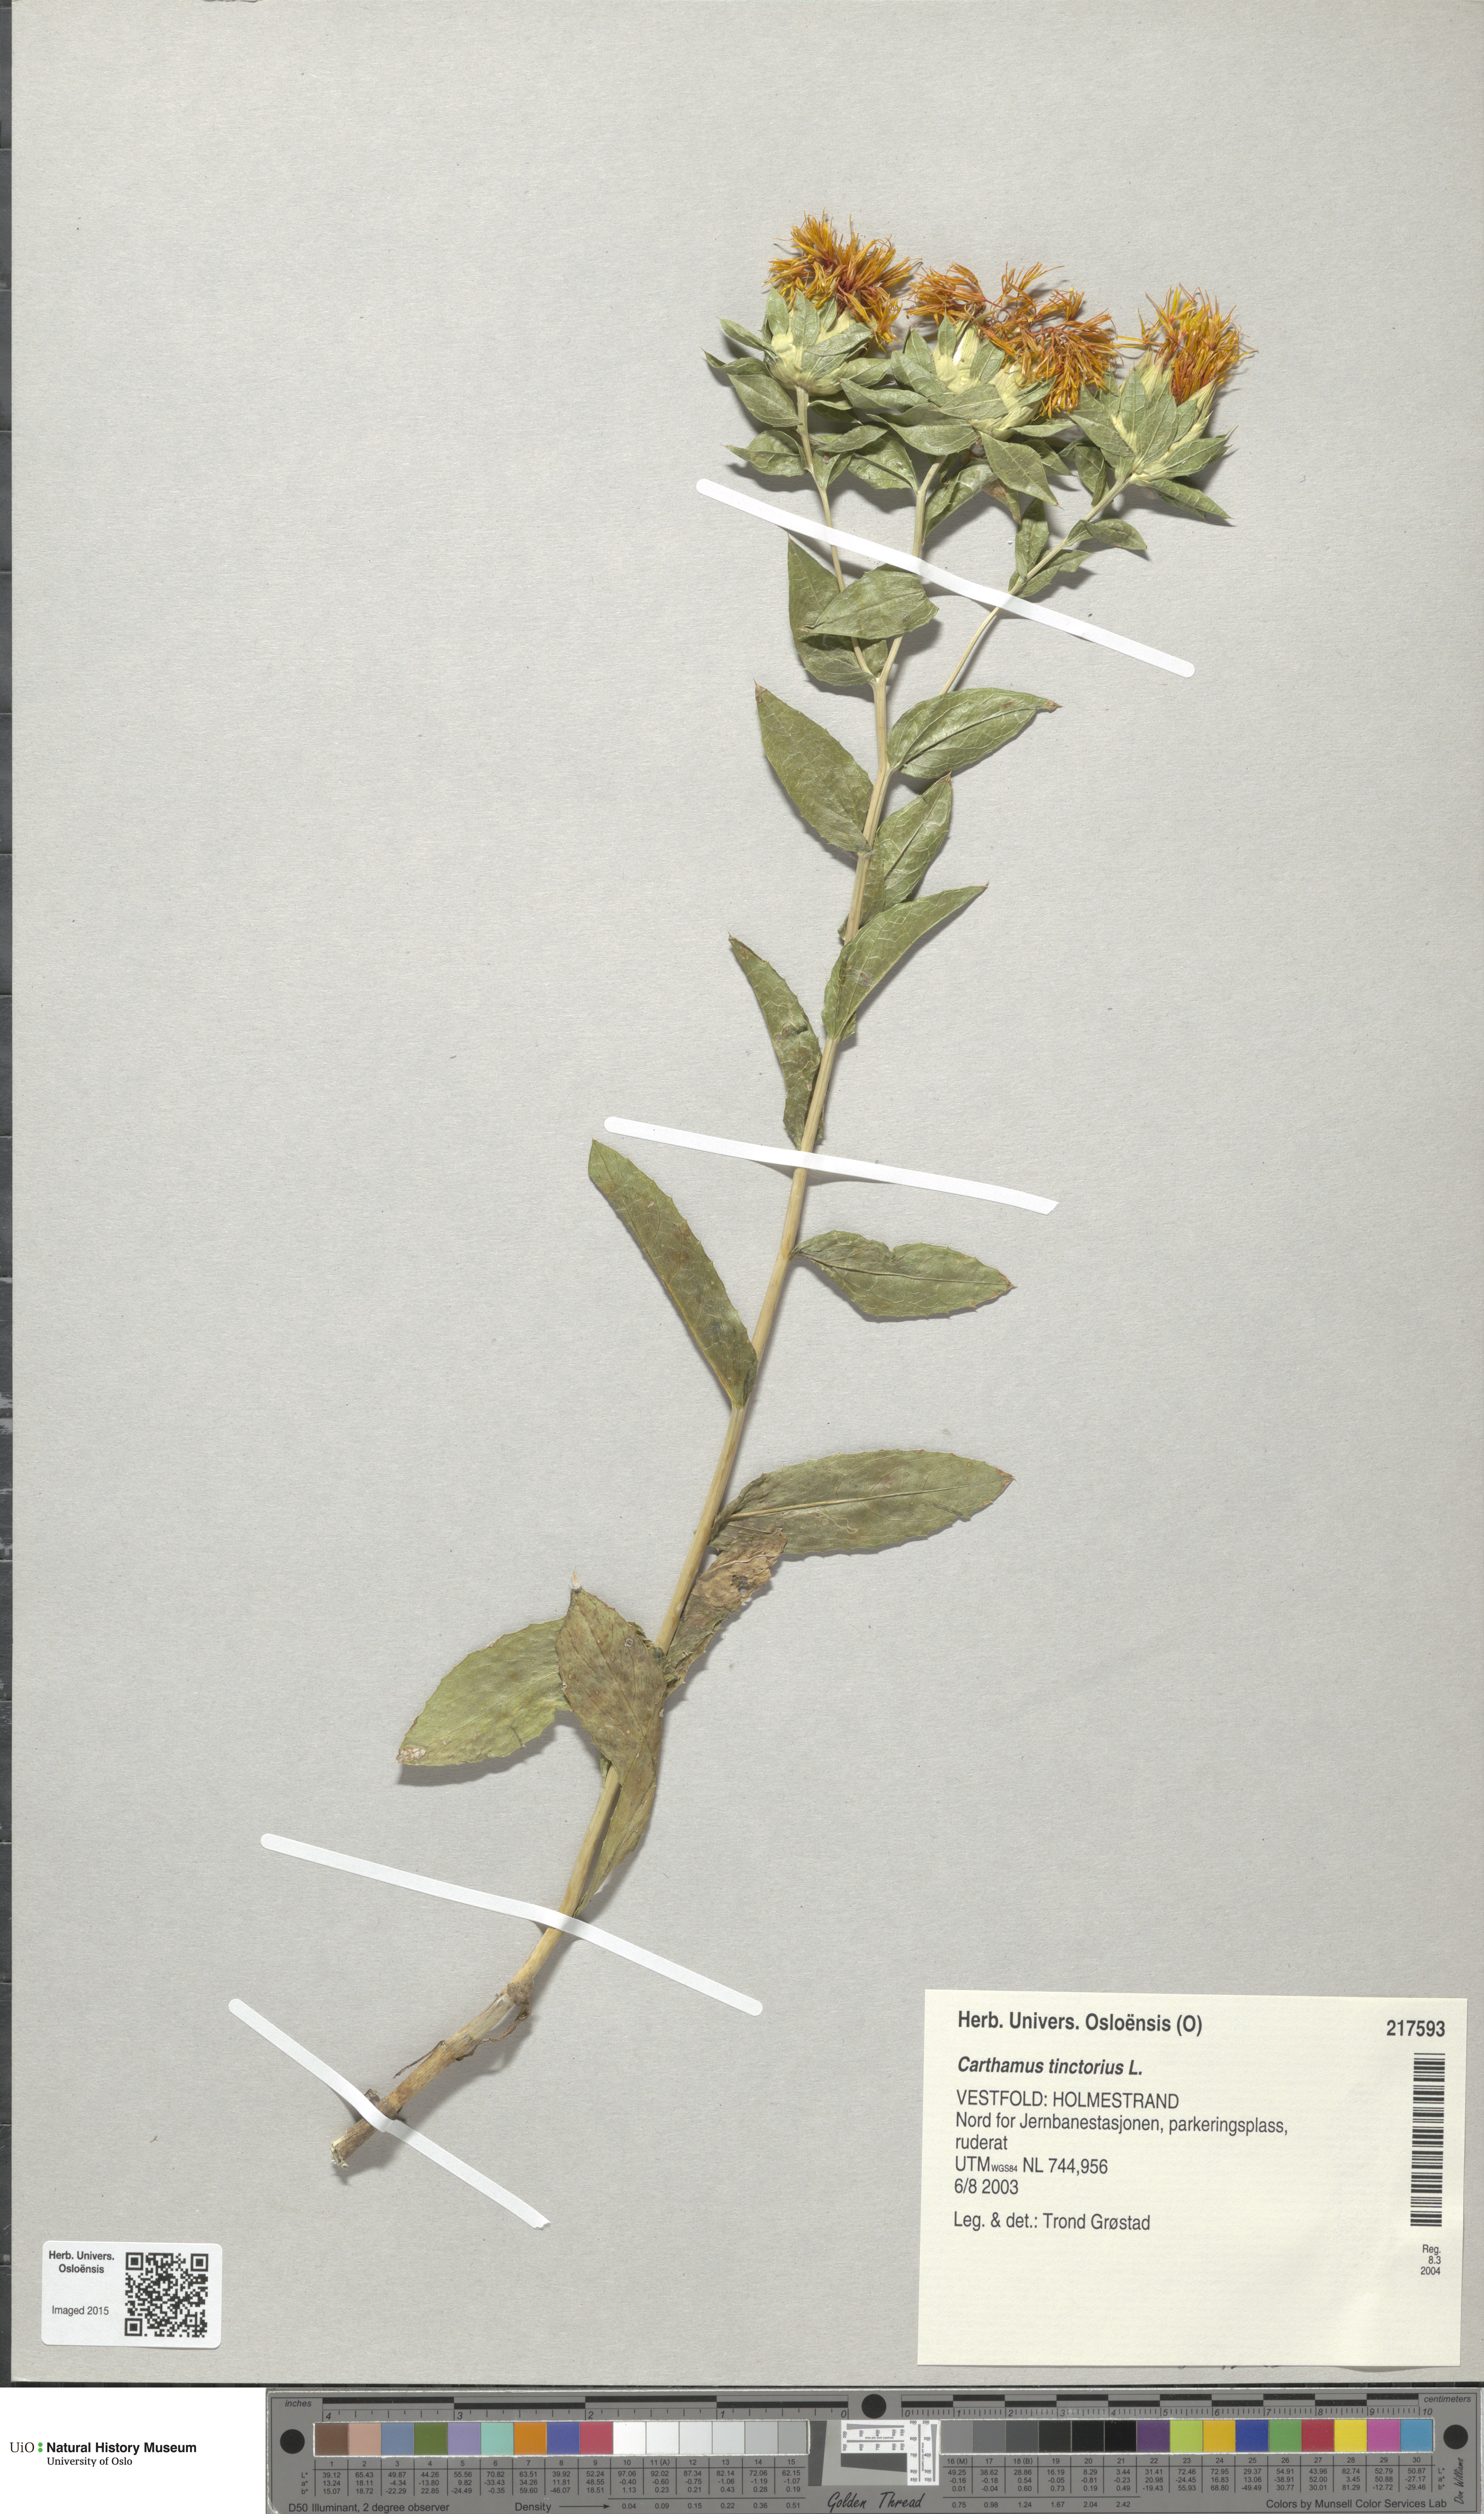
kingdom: Plantae
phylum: Tracheophyta
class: Magnoliopsida
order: Asterales
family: Asteraceae
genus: Carthamus
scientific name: Carthamus tinctorius
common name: Safflower
